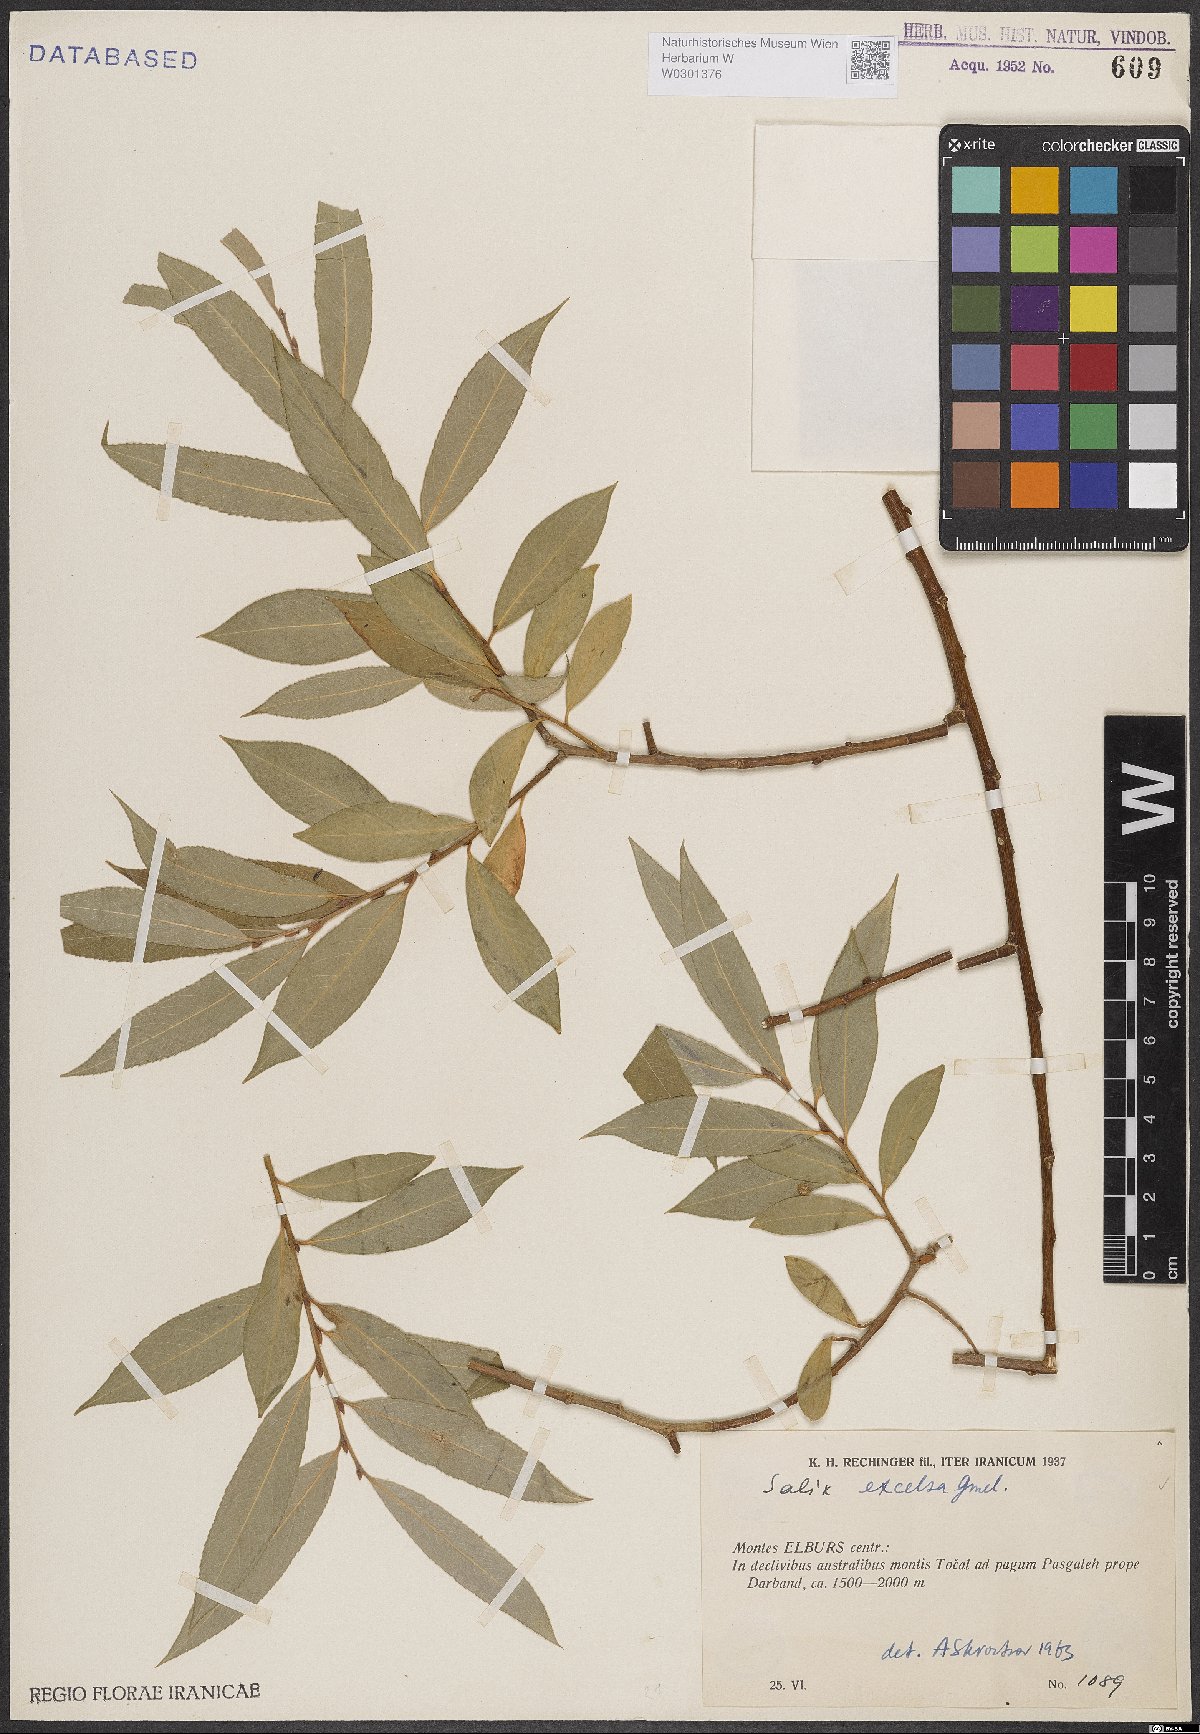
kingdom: Plantae
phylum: Tracheophyta
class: Magnoliopsida
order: Malpighiales
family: Salicaceae
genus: Salix
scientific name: Salix excelsa
